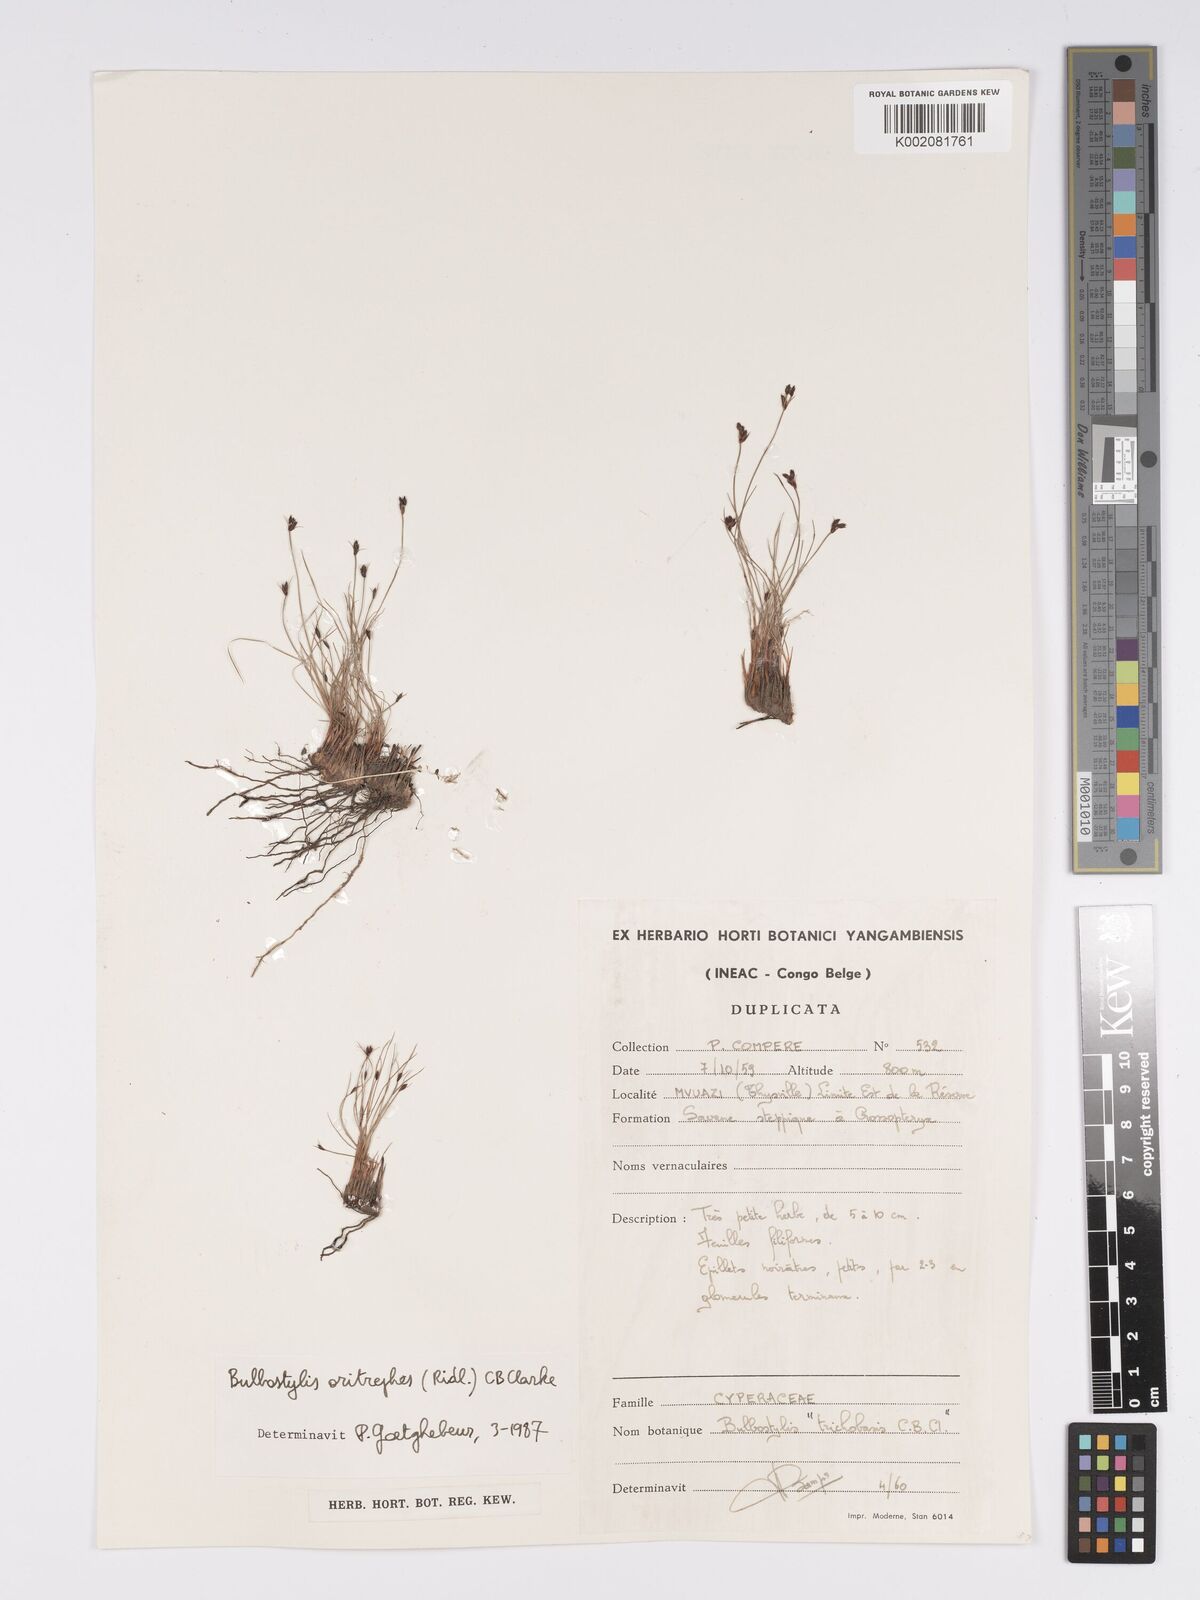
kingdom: Plantae
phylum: Tracheophyta
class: Liliopsida
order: Poales
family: Cyperaceae
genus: Bulbostylis
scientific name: Bulbostylis oritrephes
